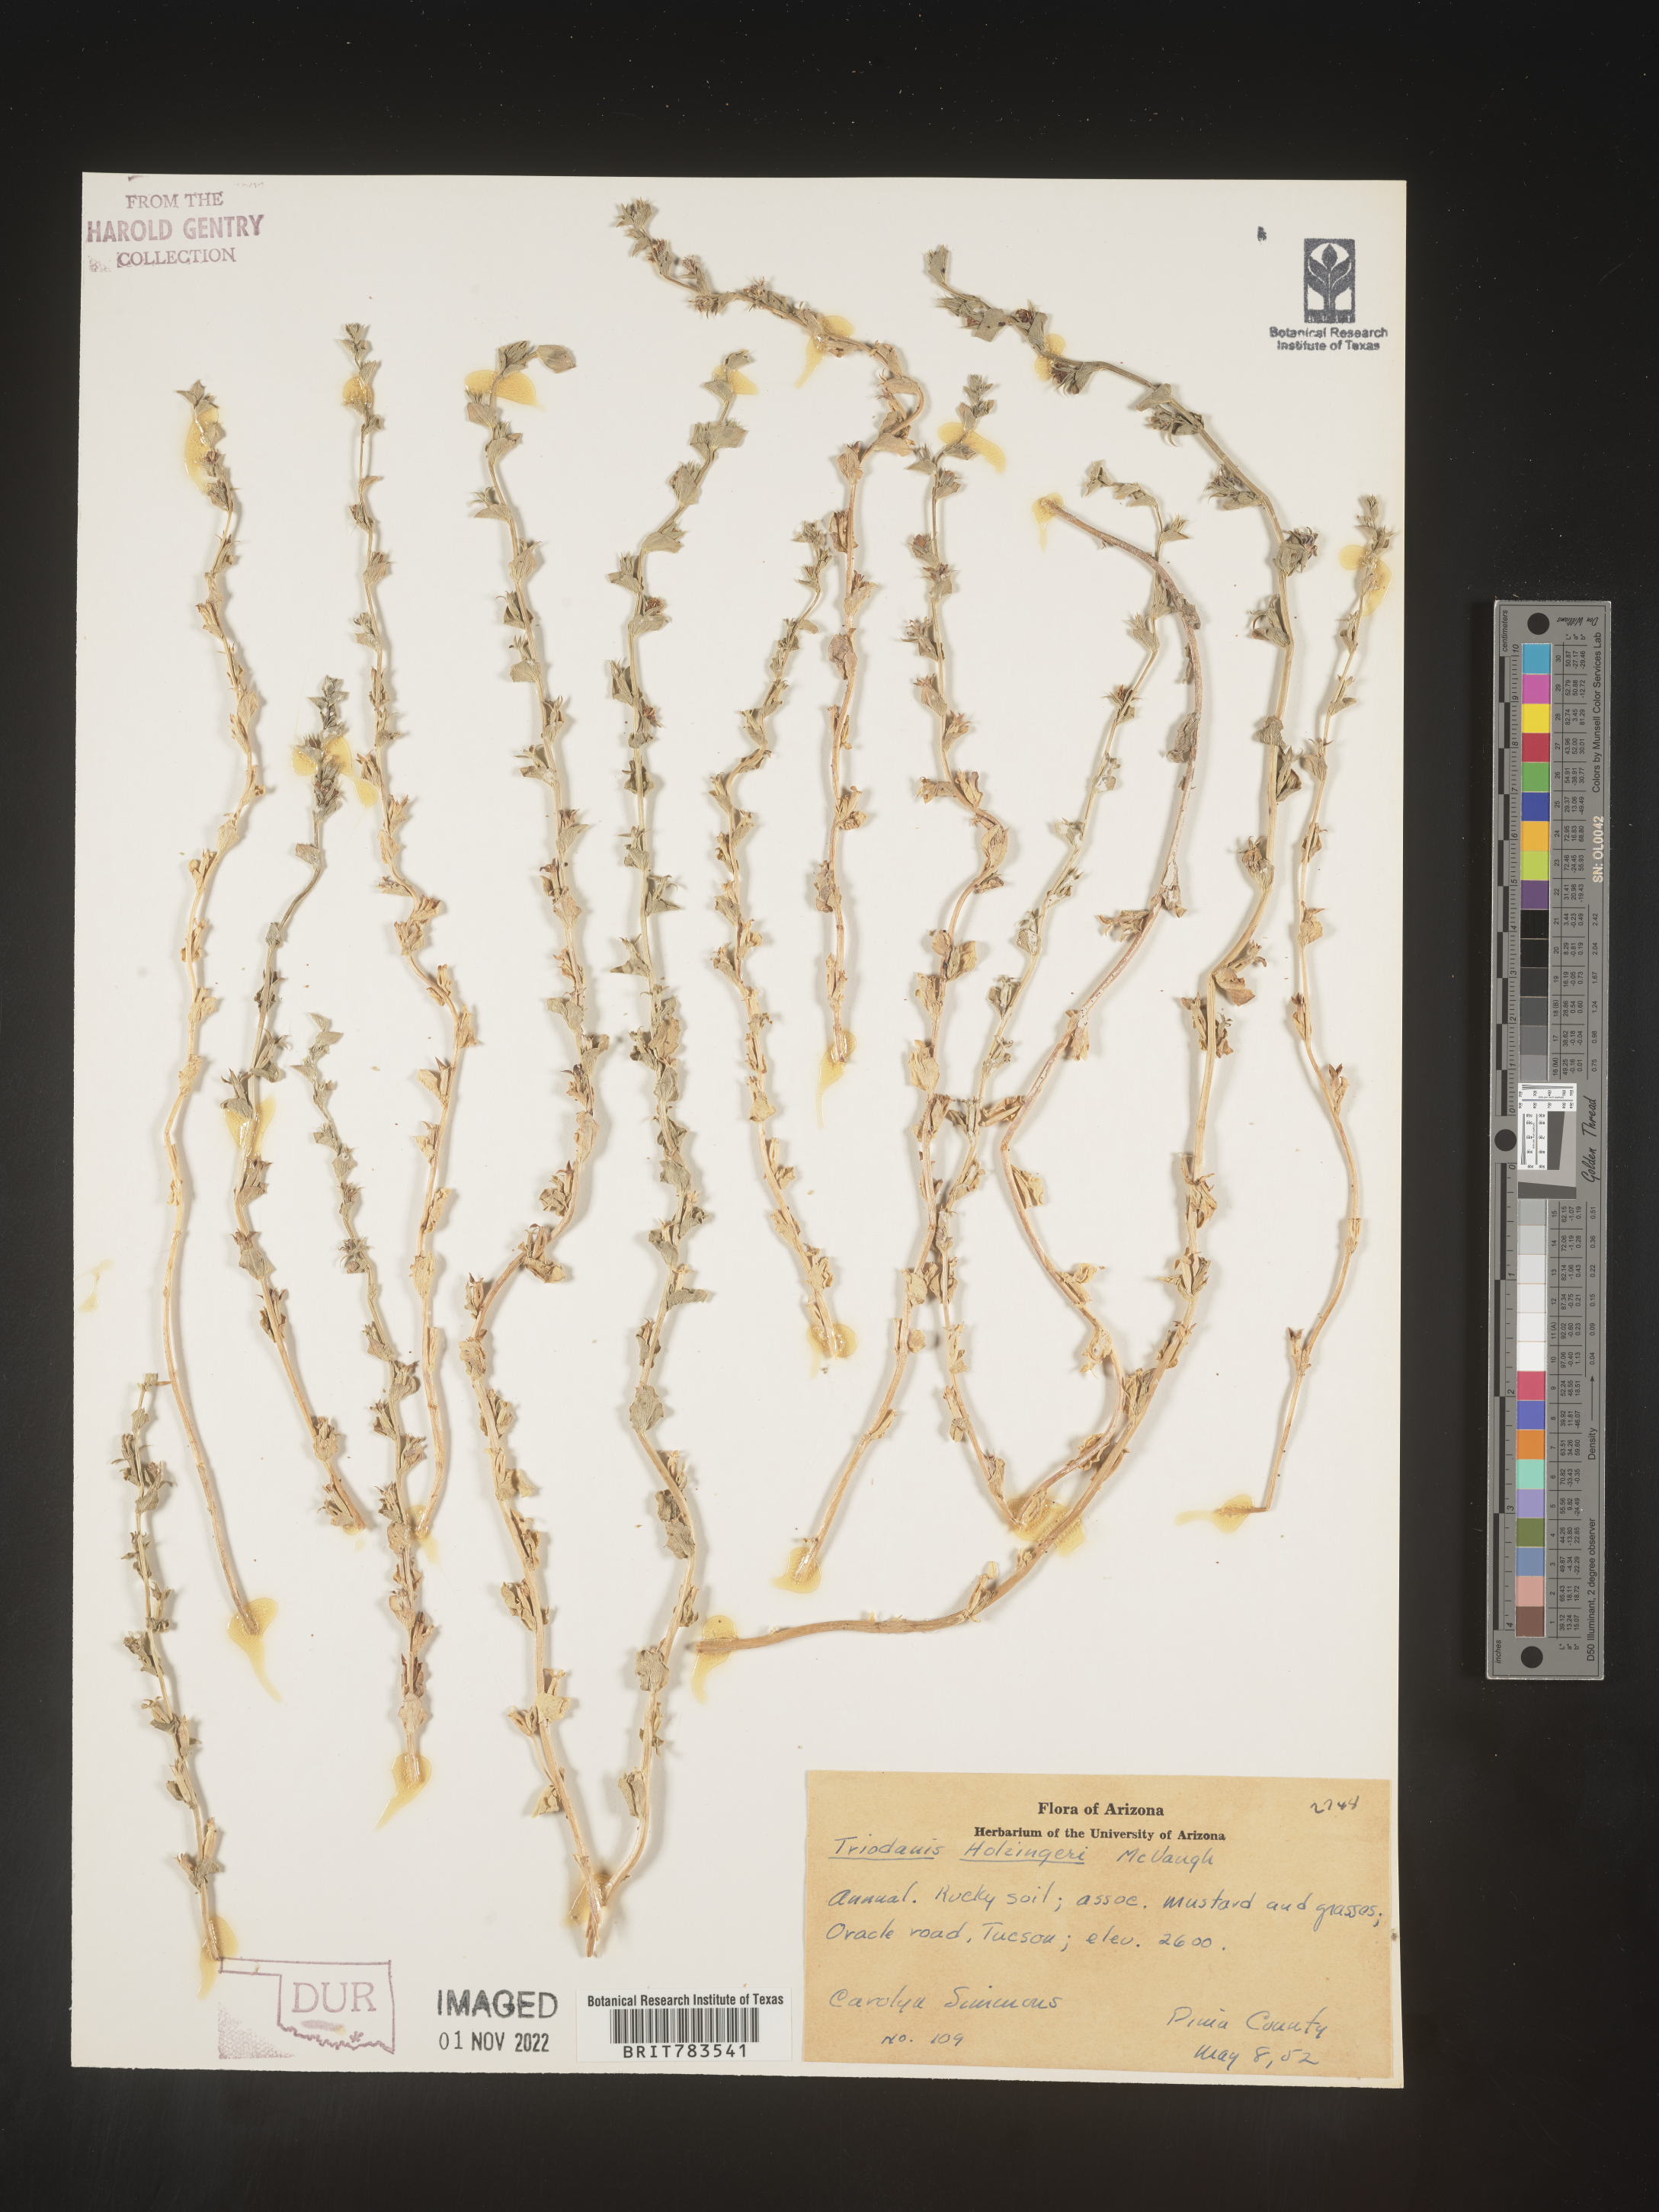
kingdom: Plantae
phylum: Tracheophyta
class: Magnoliopsida
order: Asterales
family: Campanulaceae
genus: Triodanis
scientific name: Triodanis holzingeri
